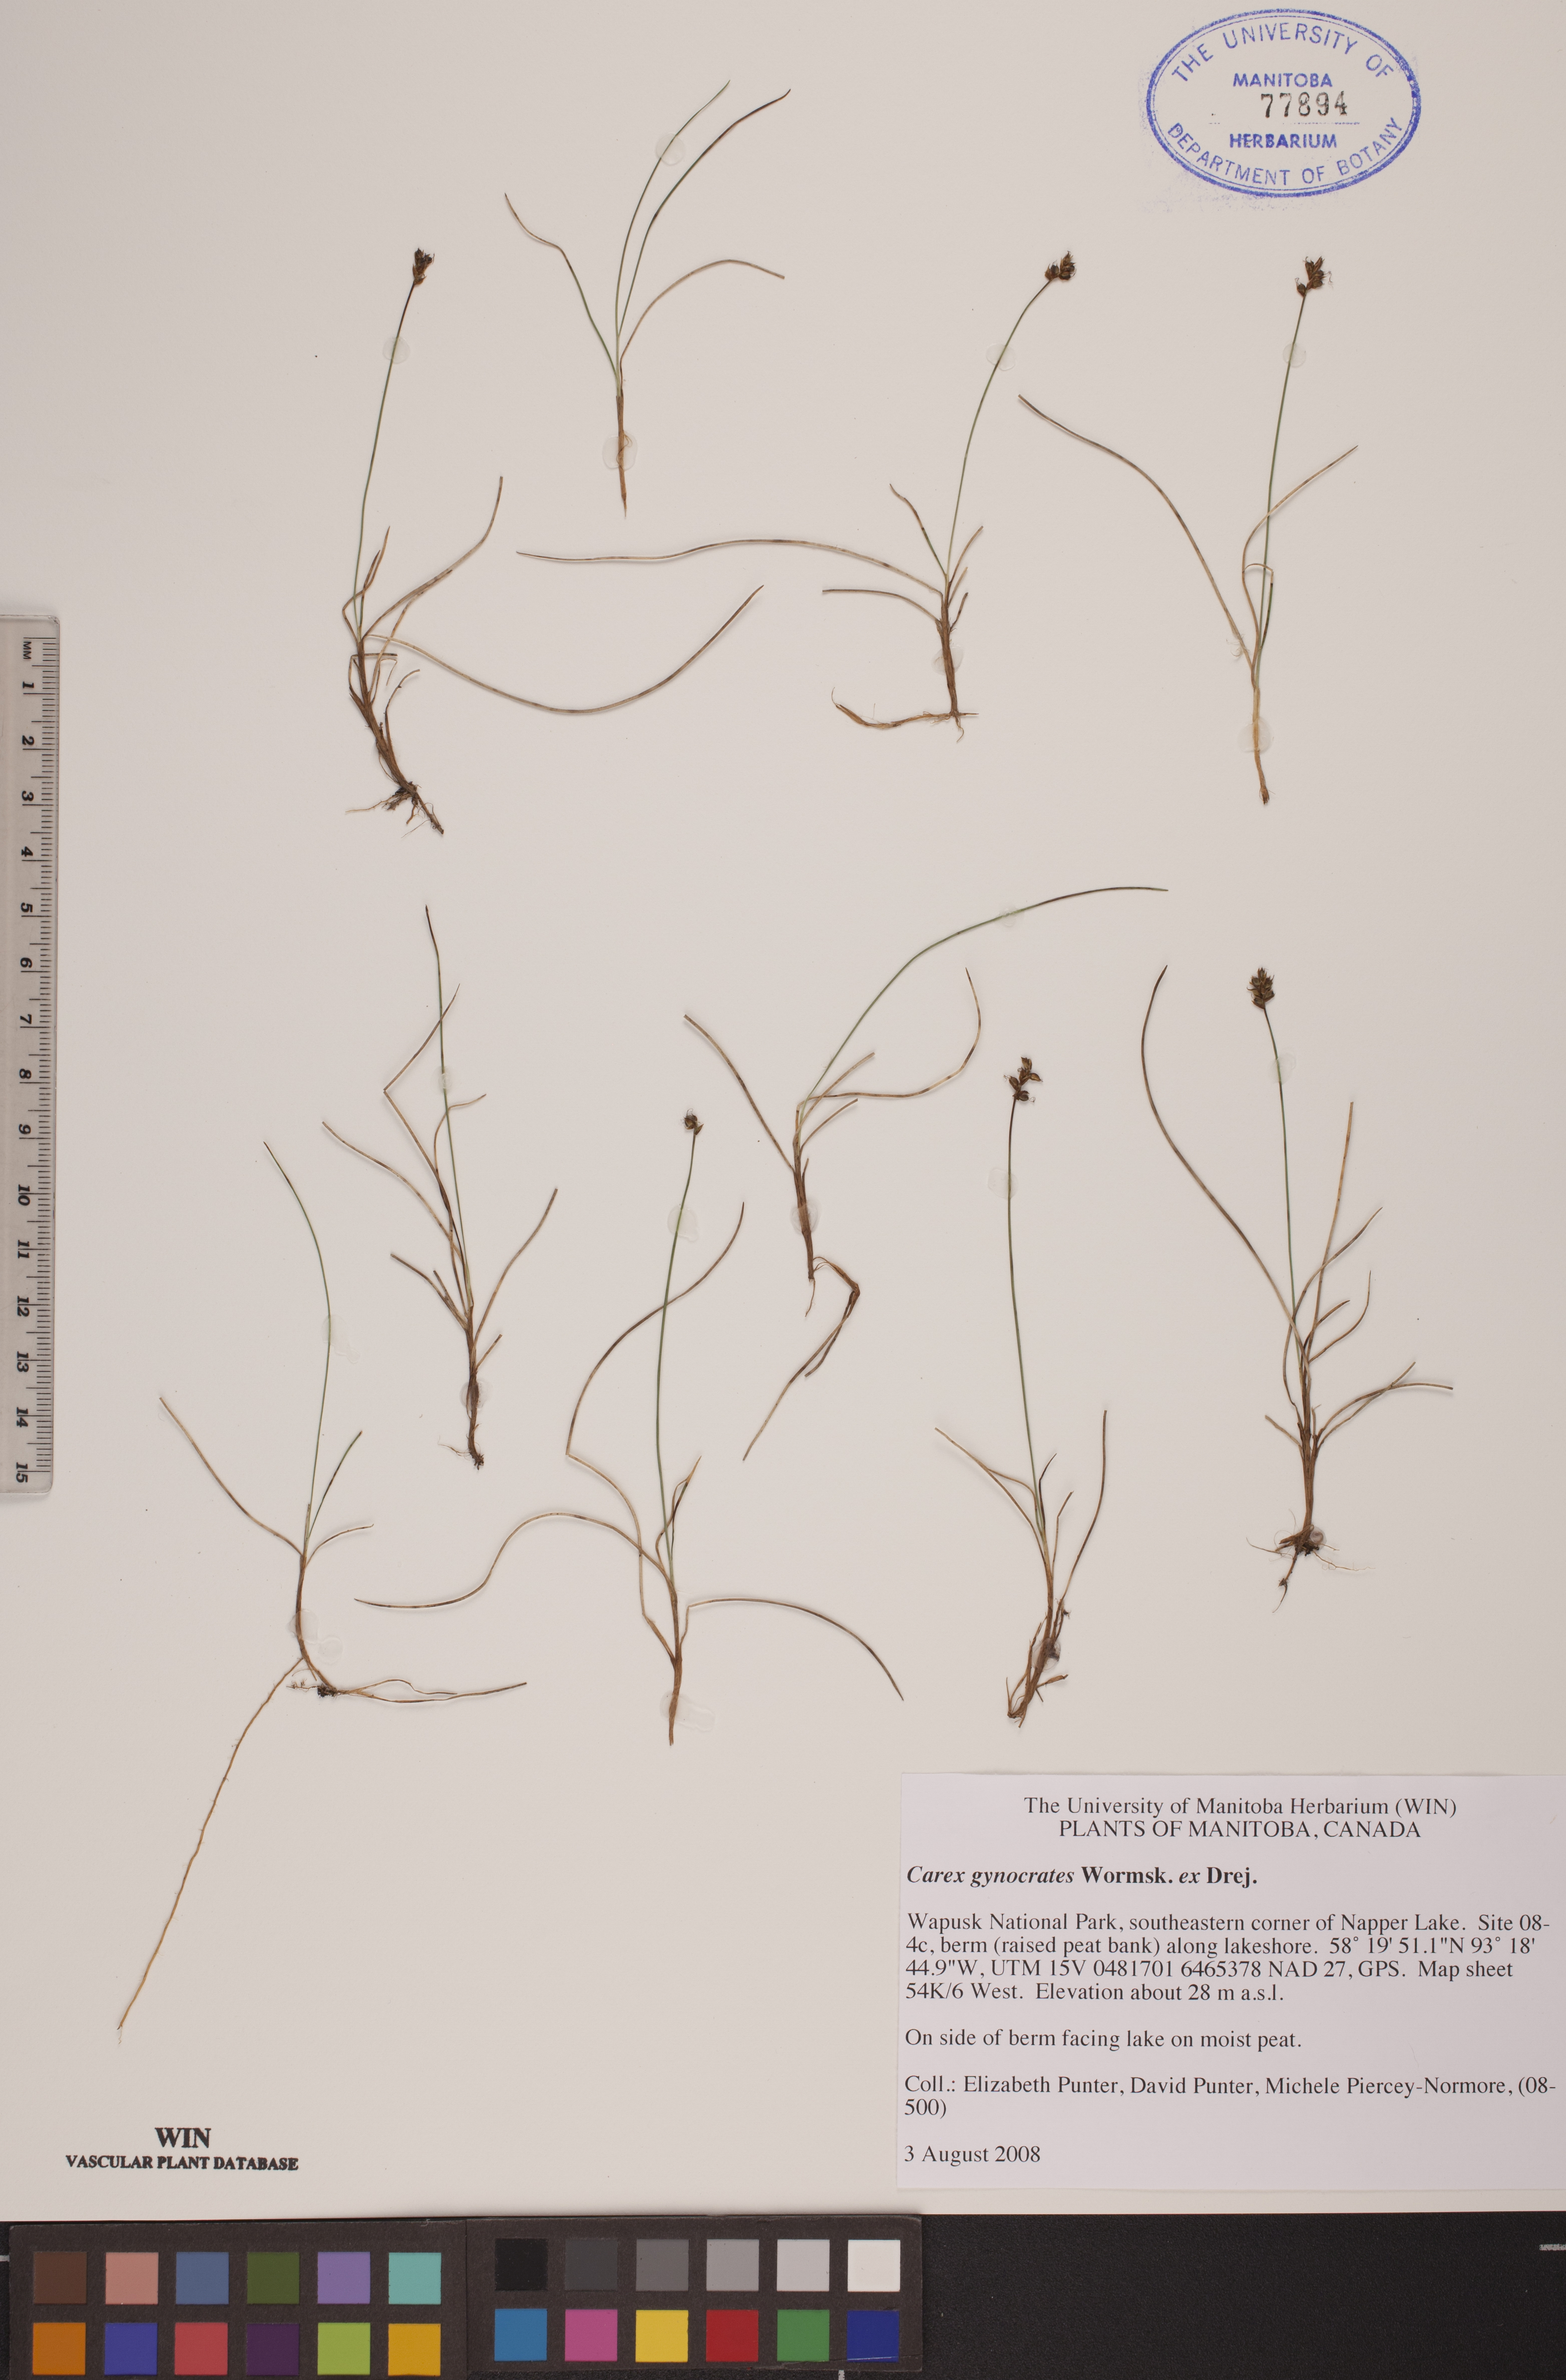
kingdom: Plantae
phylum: Tracheophyta
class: Liliopsida
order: Poales
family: Cyperaceae
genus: Carex
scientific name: Carex nardina
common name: Nard sedge
